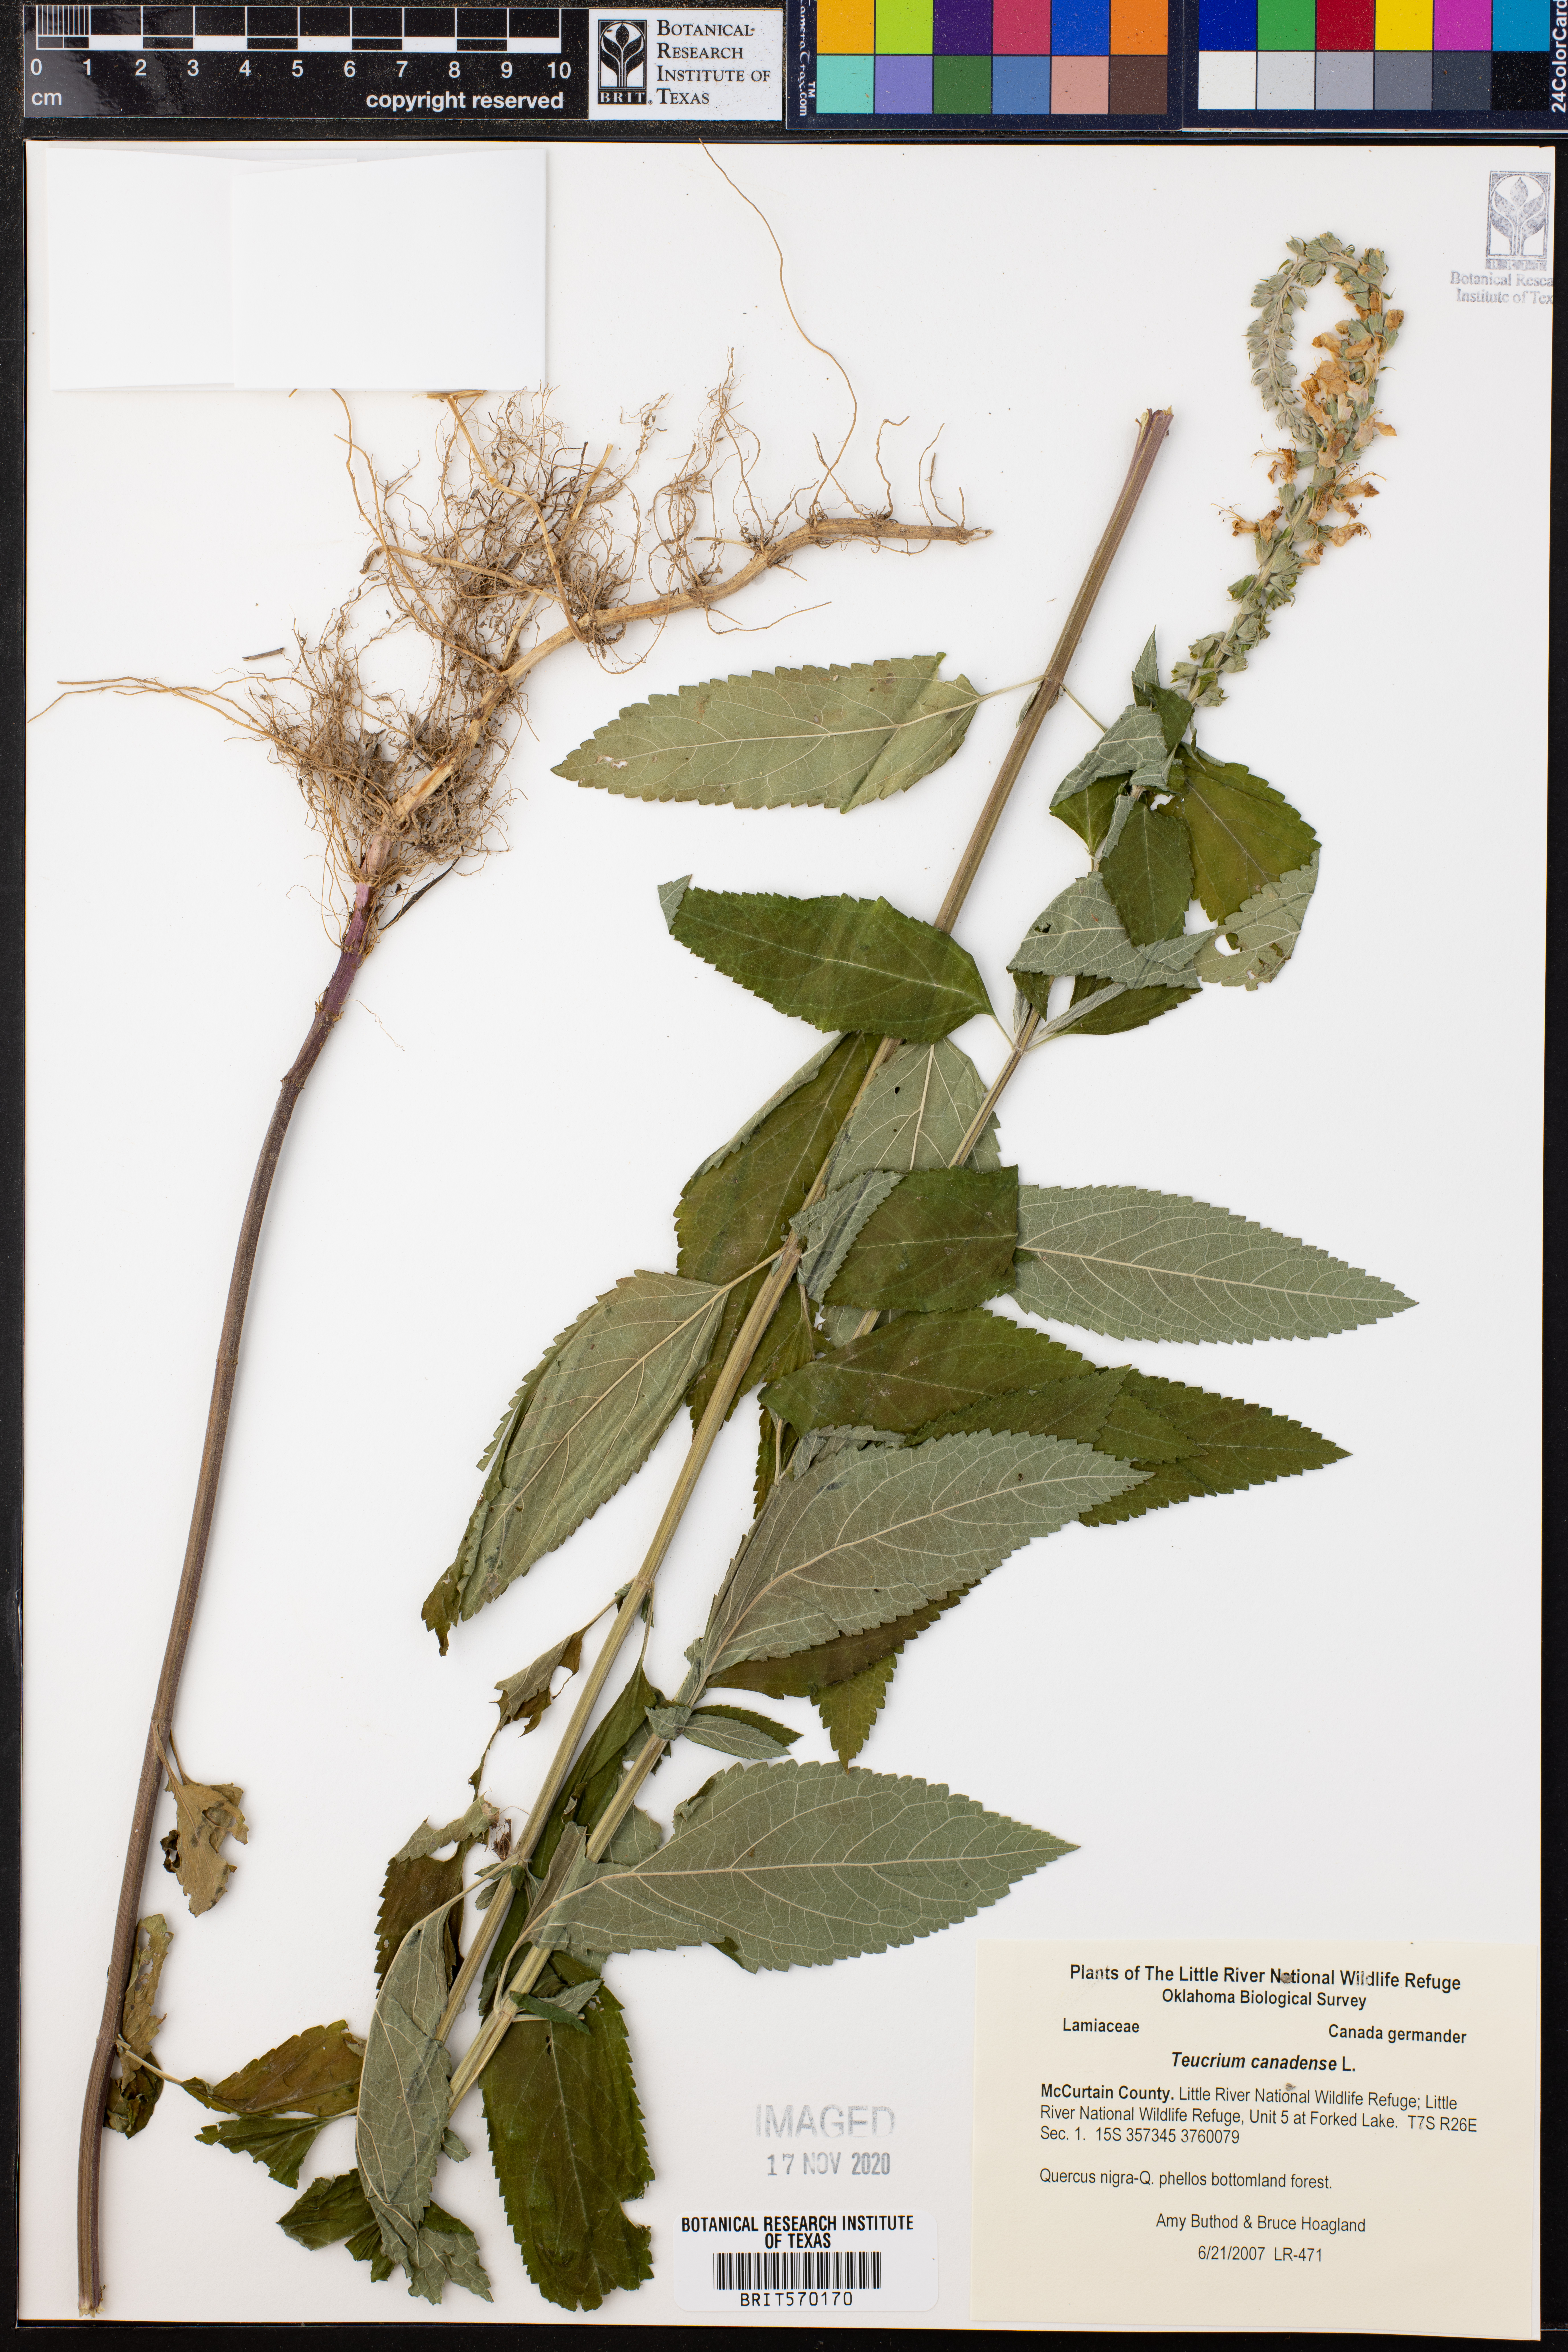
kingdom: Plantae
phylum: Tracheophyta
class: Magnoliopsida
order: Lamiales
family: Lamiaceae
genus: Teucrium
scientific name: Teucrium canadense
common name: American germander
